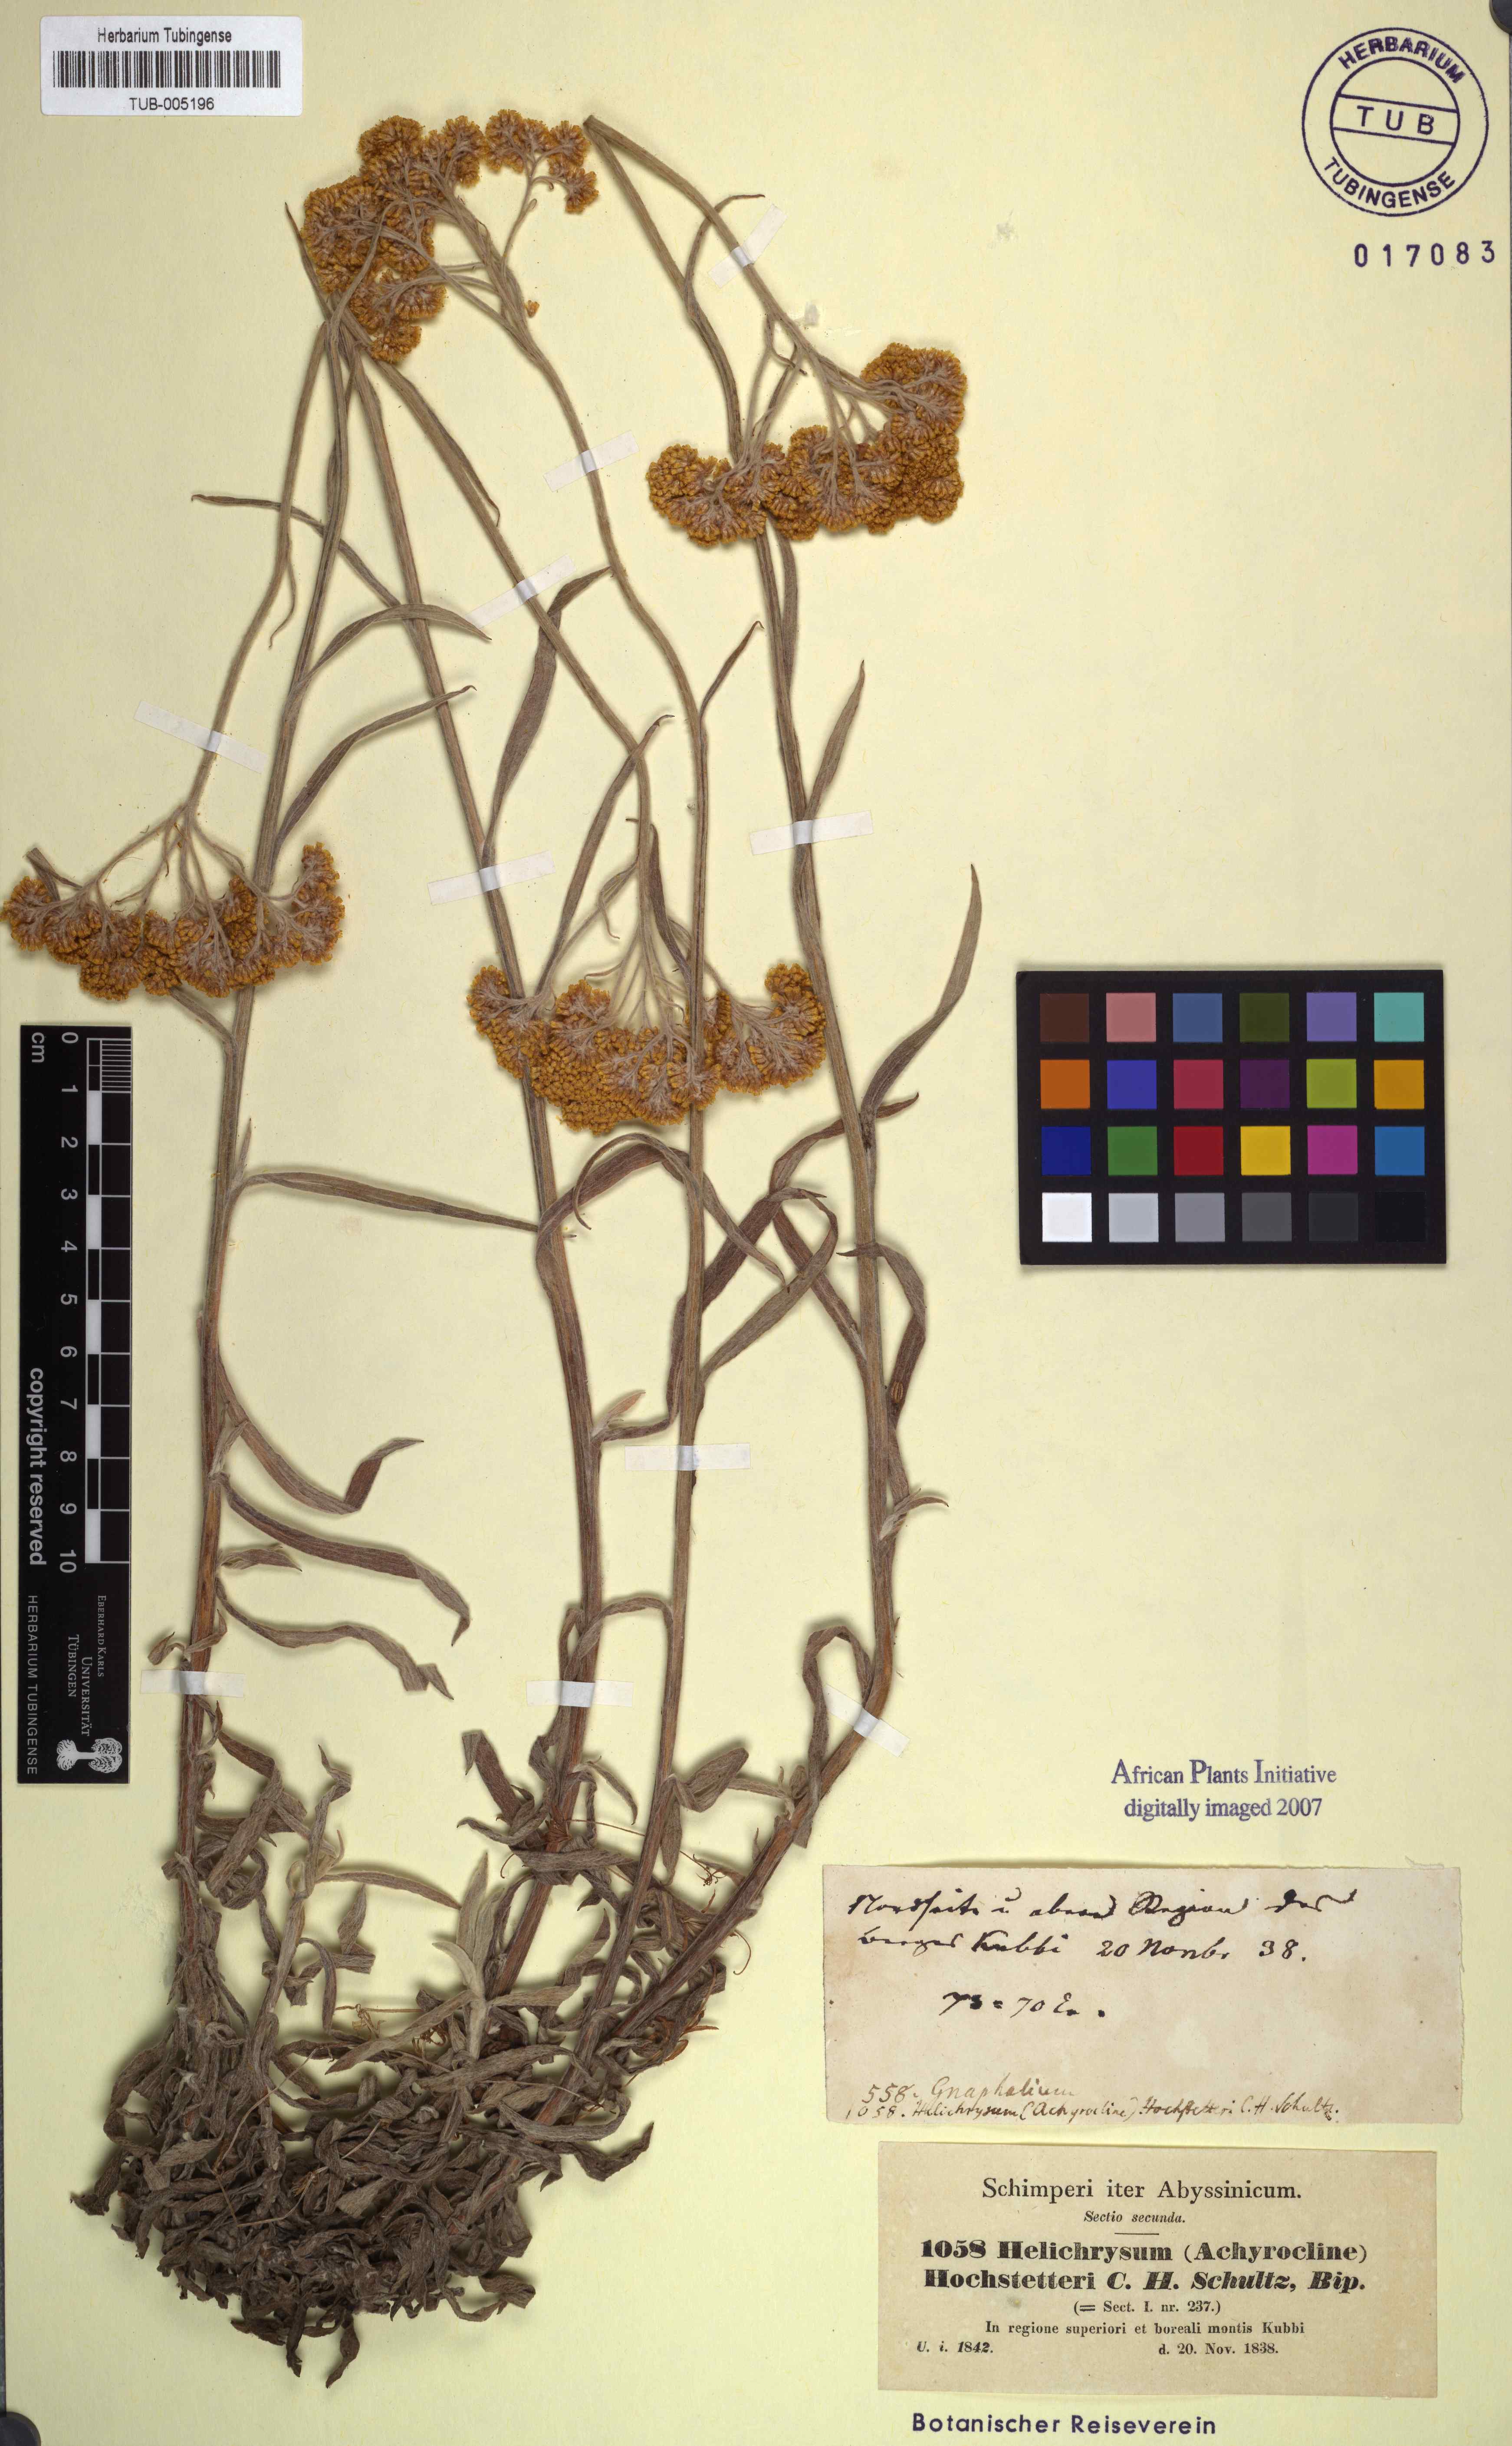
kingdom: Plantae
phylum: Tracheophyta
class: Magnoliopsida
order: Asterales
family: Asteraceae
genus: Helichrysum
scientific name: Helichrysum odoratissimum
